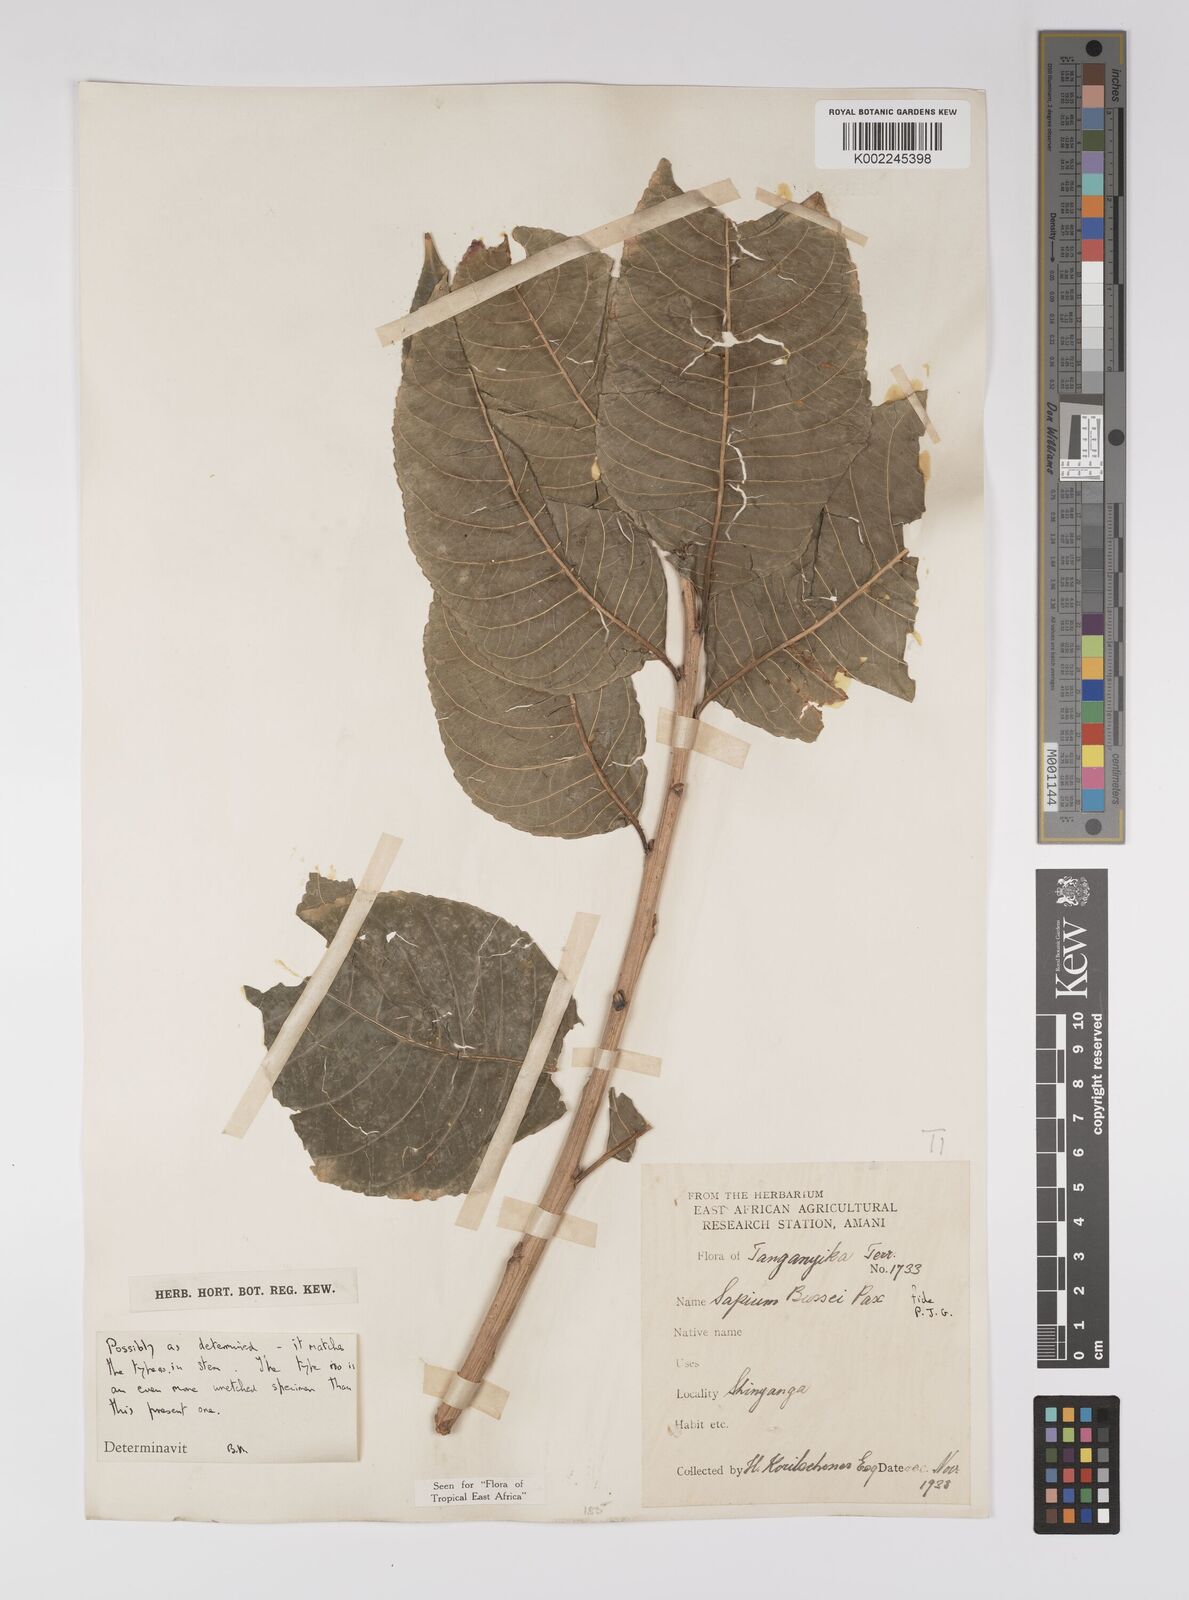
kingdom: Plantae
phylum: Tracheophyta
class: Magnoliopsida
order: Malpighiales
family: Euphorbiaceae
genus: Excoecaria
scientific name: Excoecaria bussei
